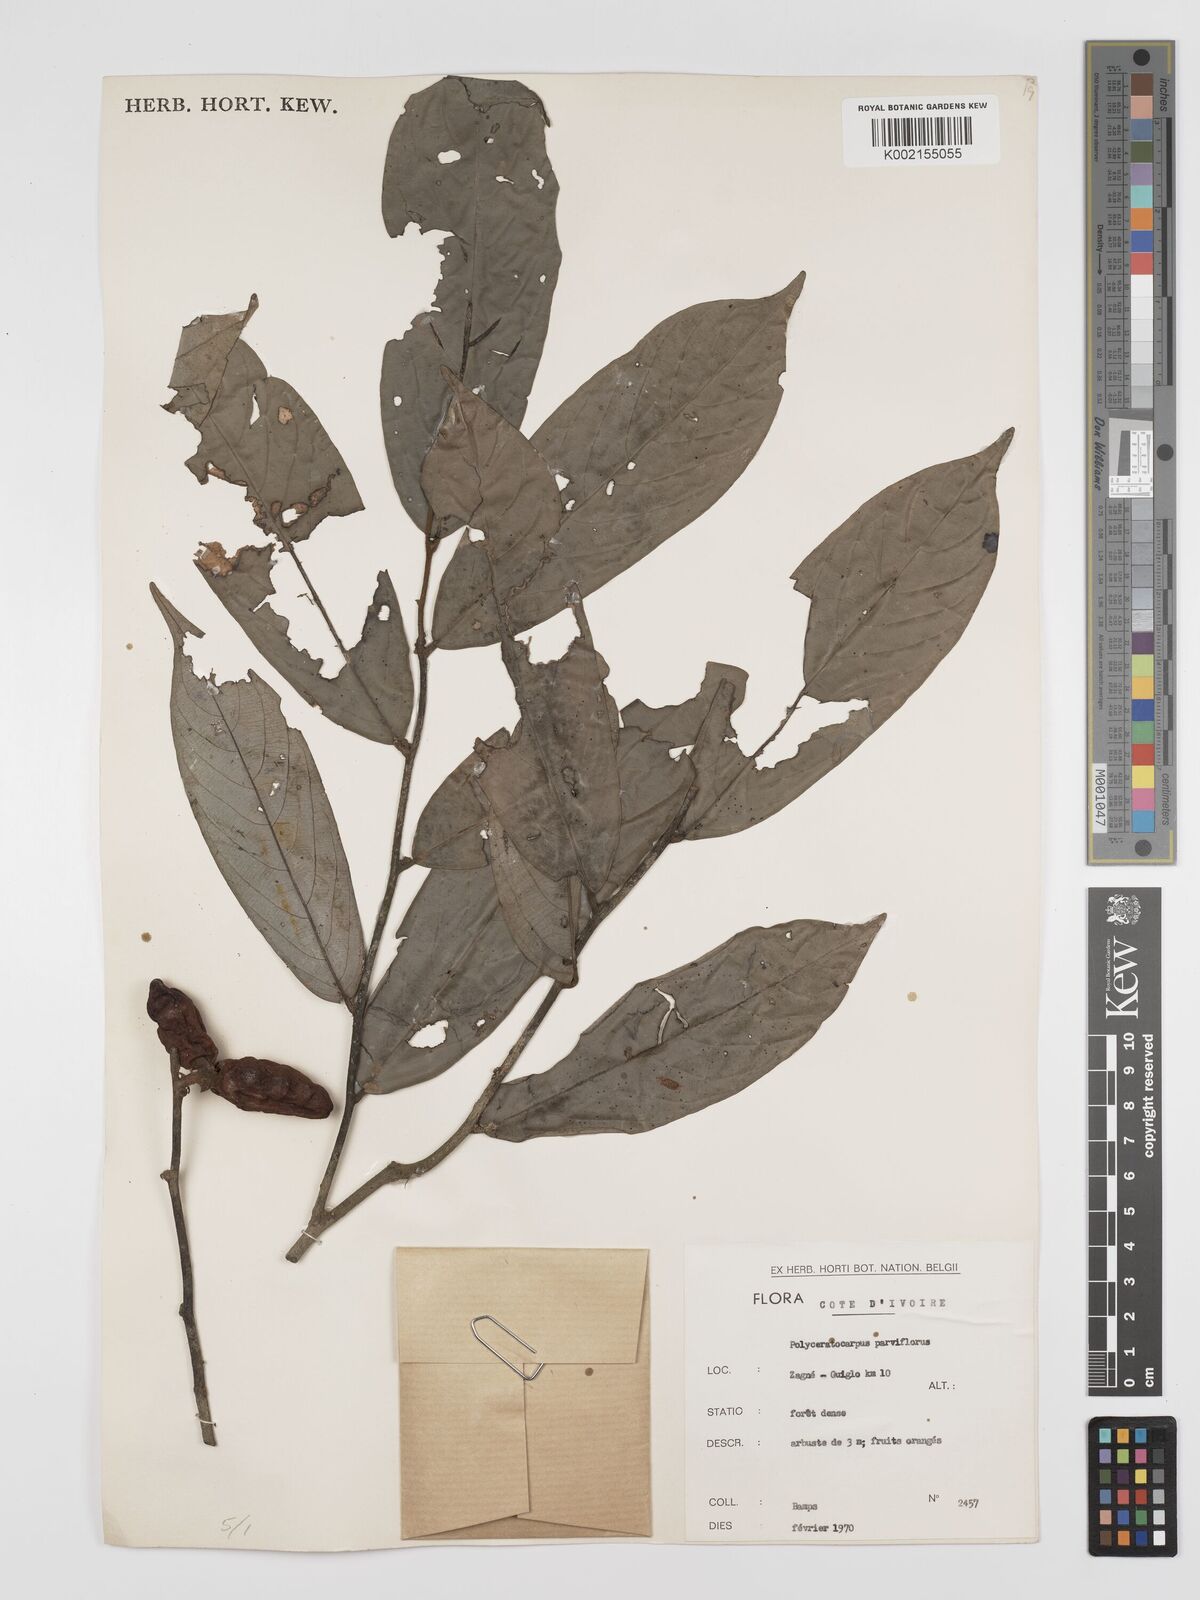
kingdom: Plantae
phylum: Tracheophyta
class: Magnoliopsida
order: Magnoliales
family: Annonaceae
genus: Polyceratocarpus
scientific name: Polyceratocarpus parviflorus
